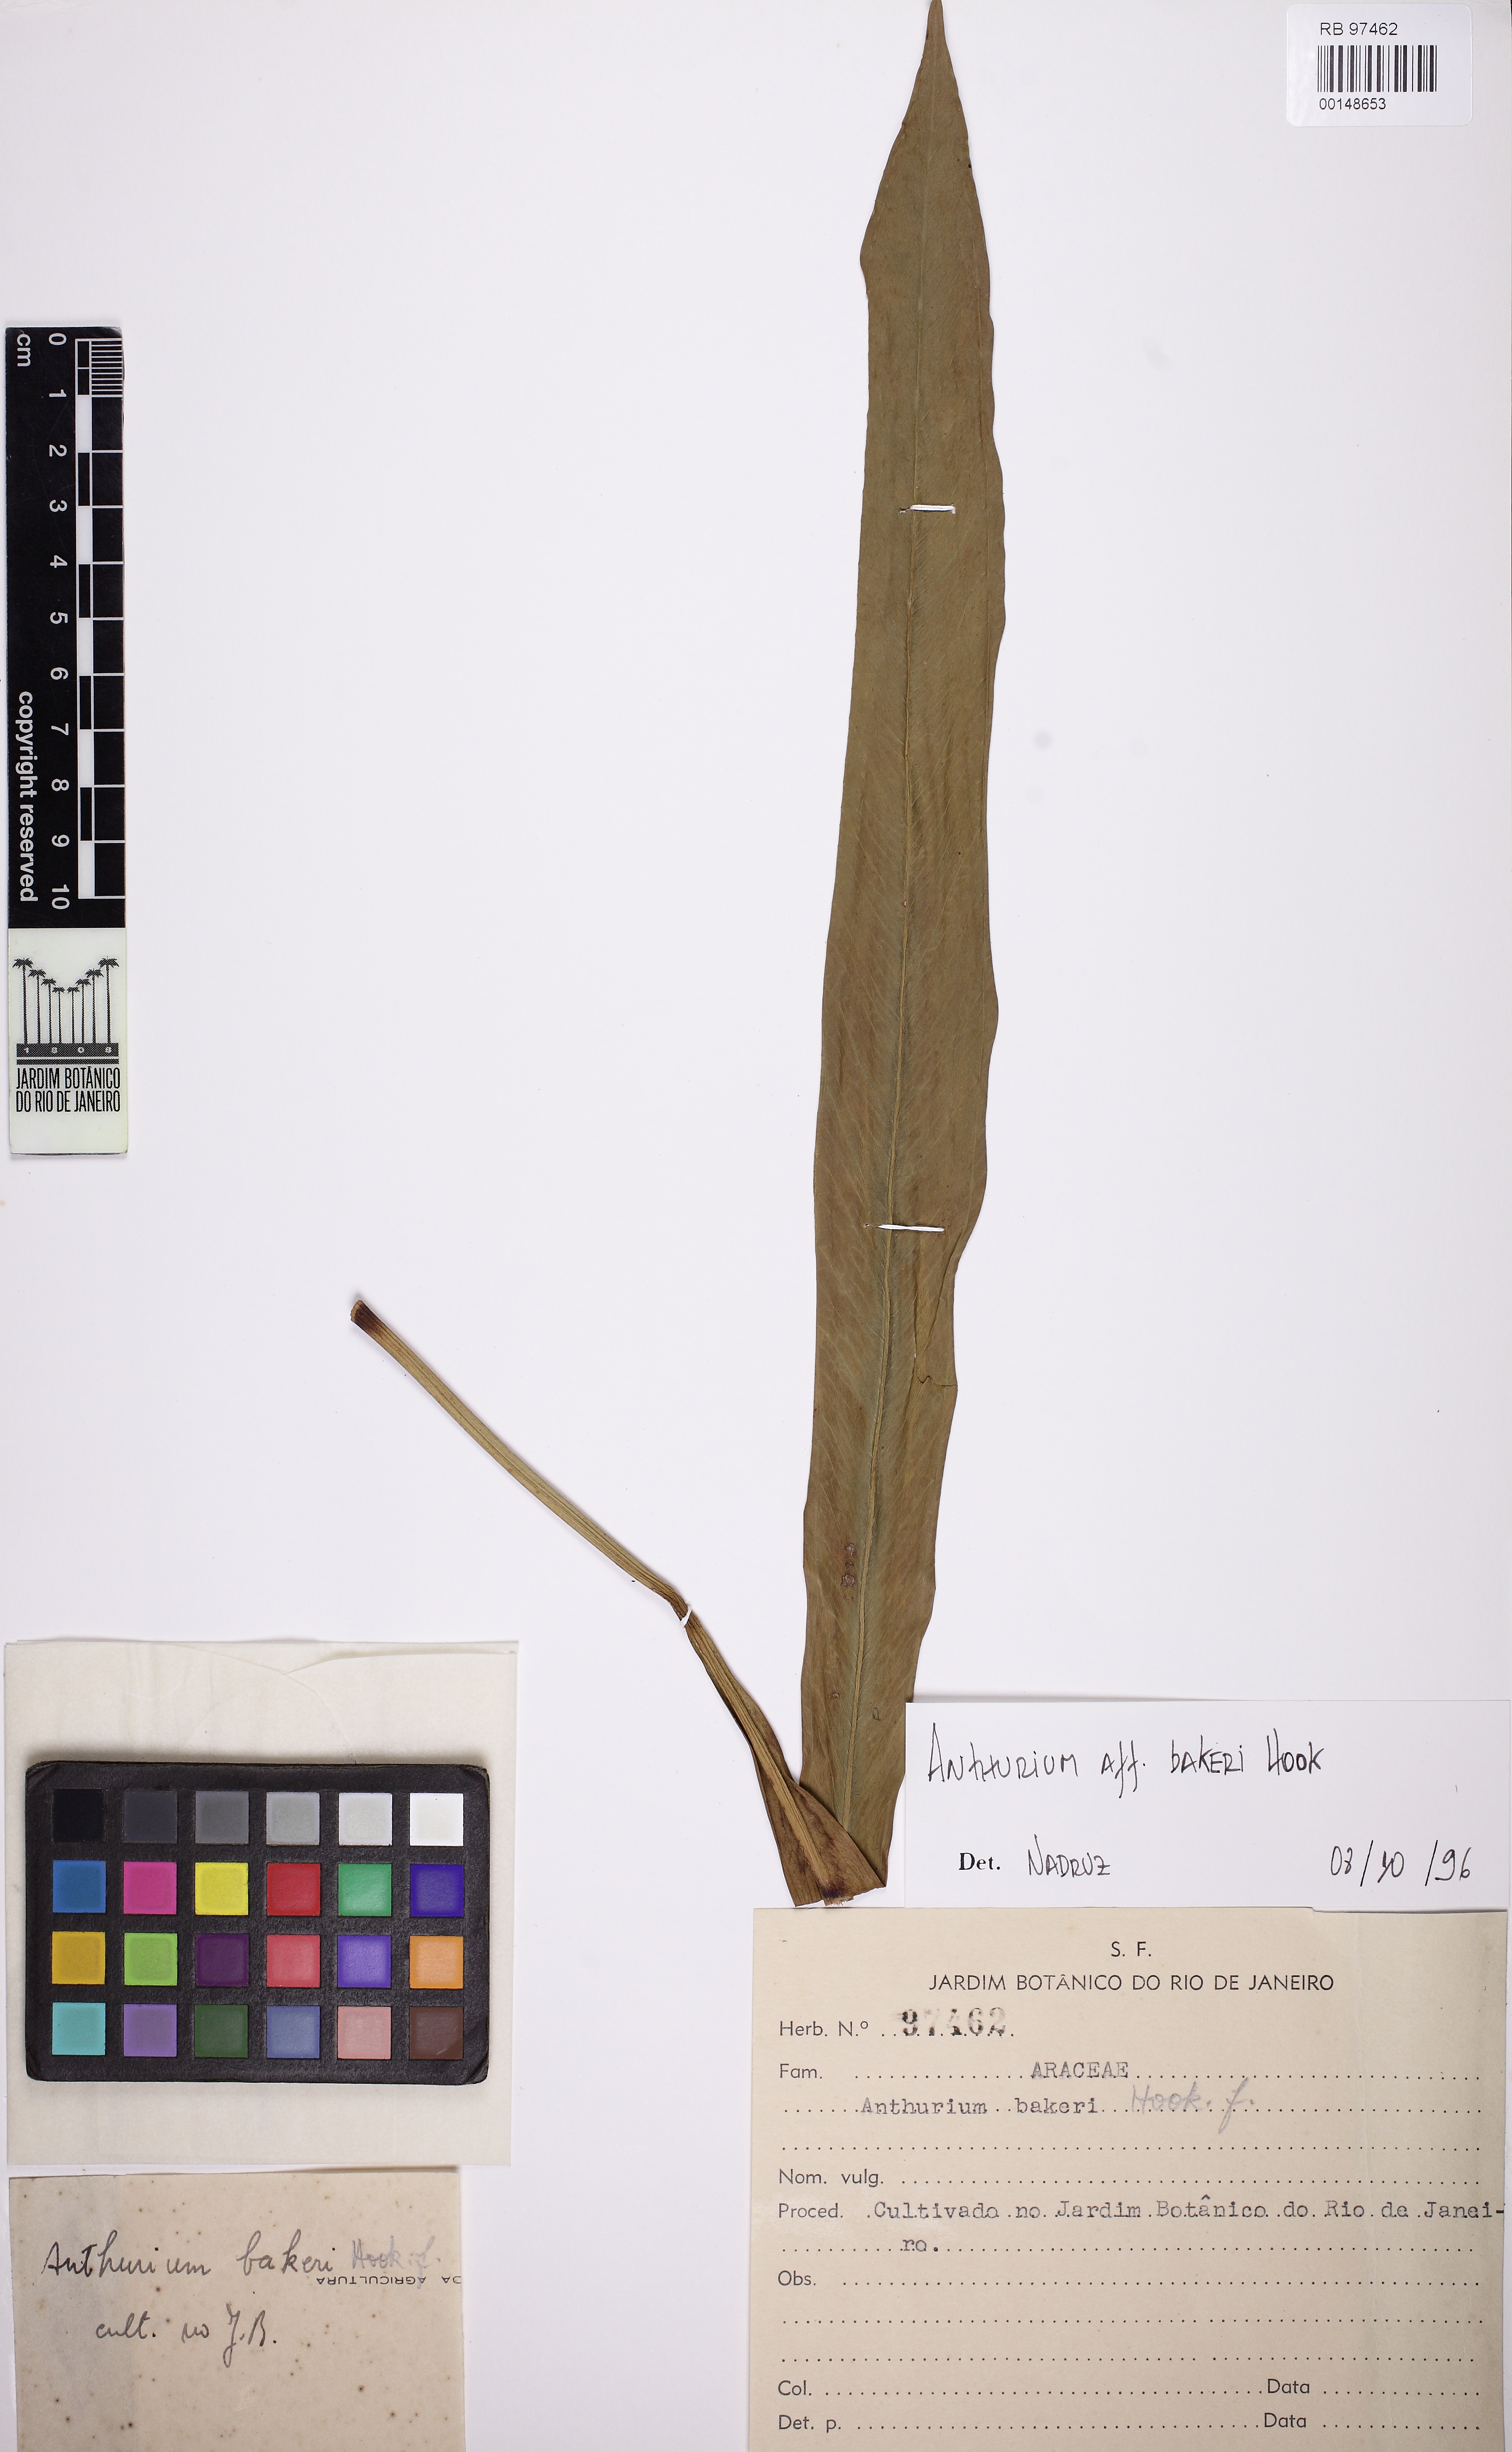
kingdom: Plantae
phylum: Tracheophyta
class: Liliopsida
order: Alismatales
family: Araceae
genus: Anthurium
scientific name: Anthurium bakeri
